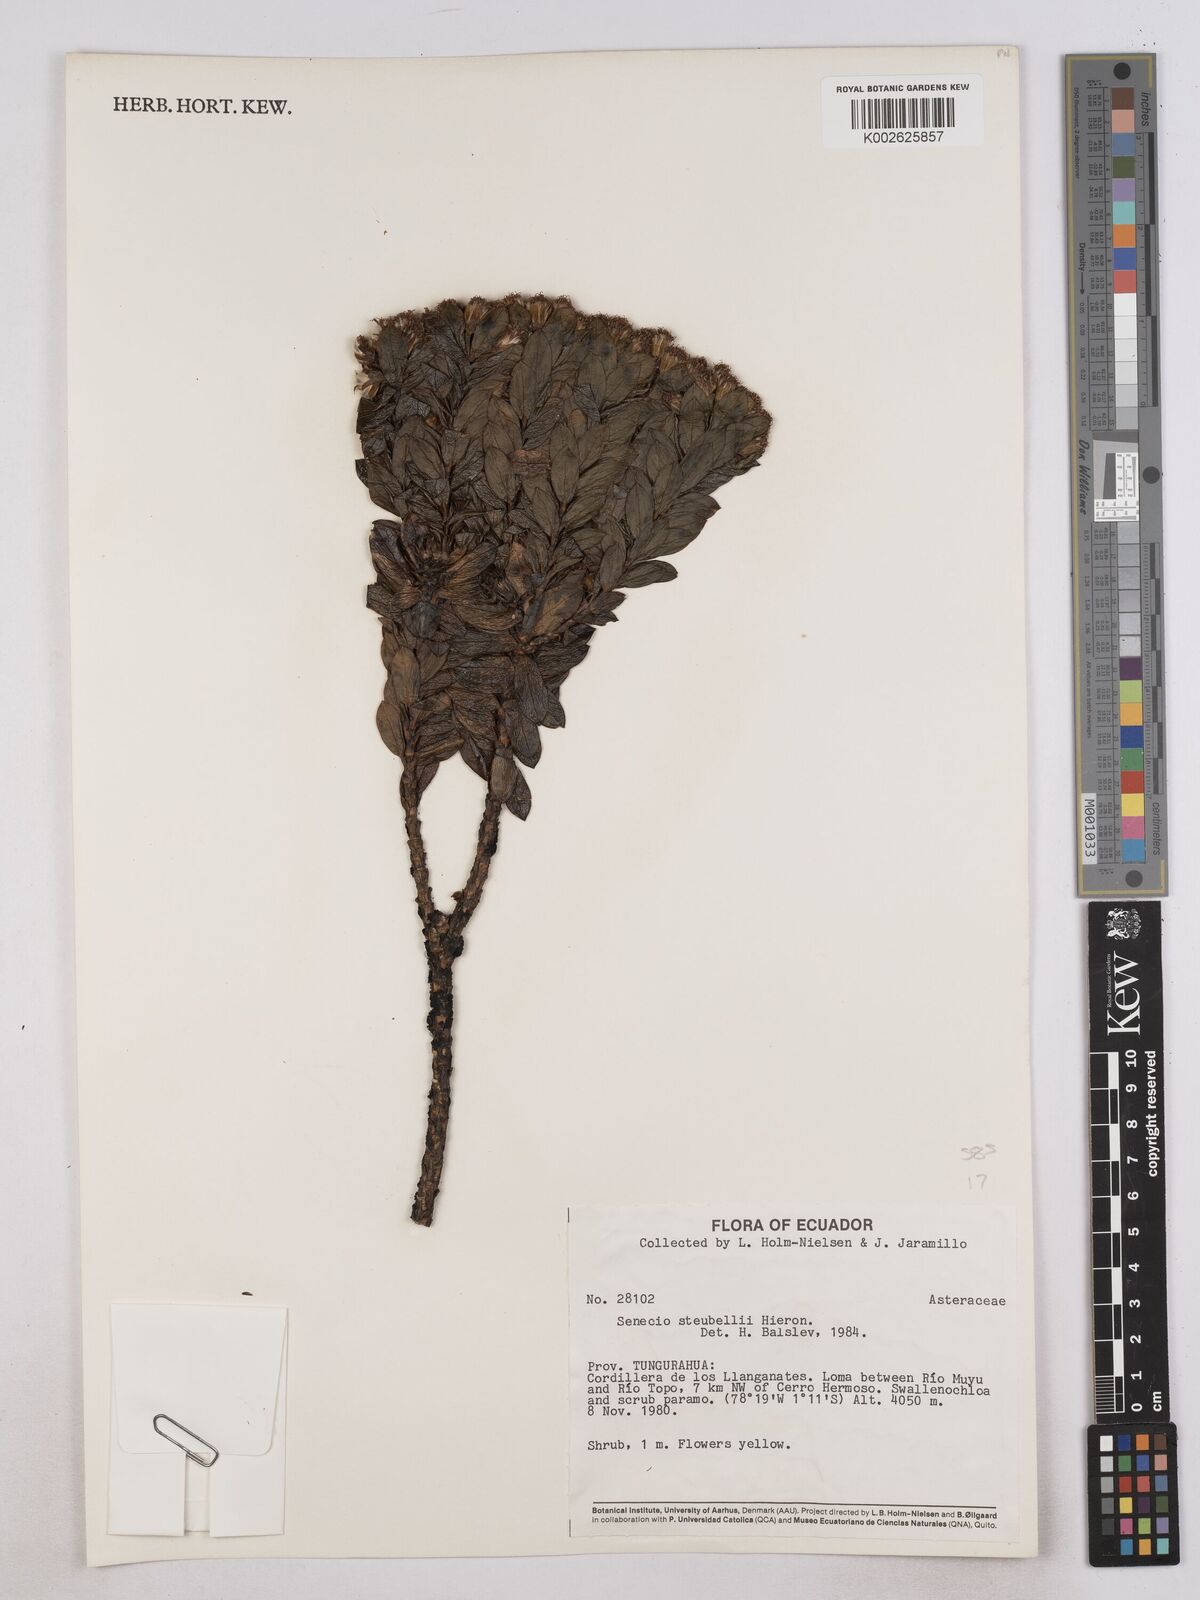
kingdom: Plantae
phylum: Tracheophyta
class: Magnoliopsida
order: Asterales
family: Asteraceae
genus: Monticalia
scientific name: Monticalia stuebelii
